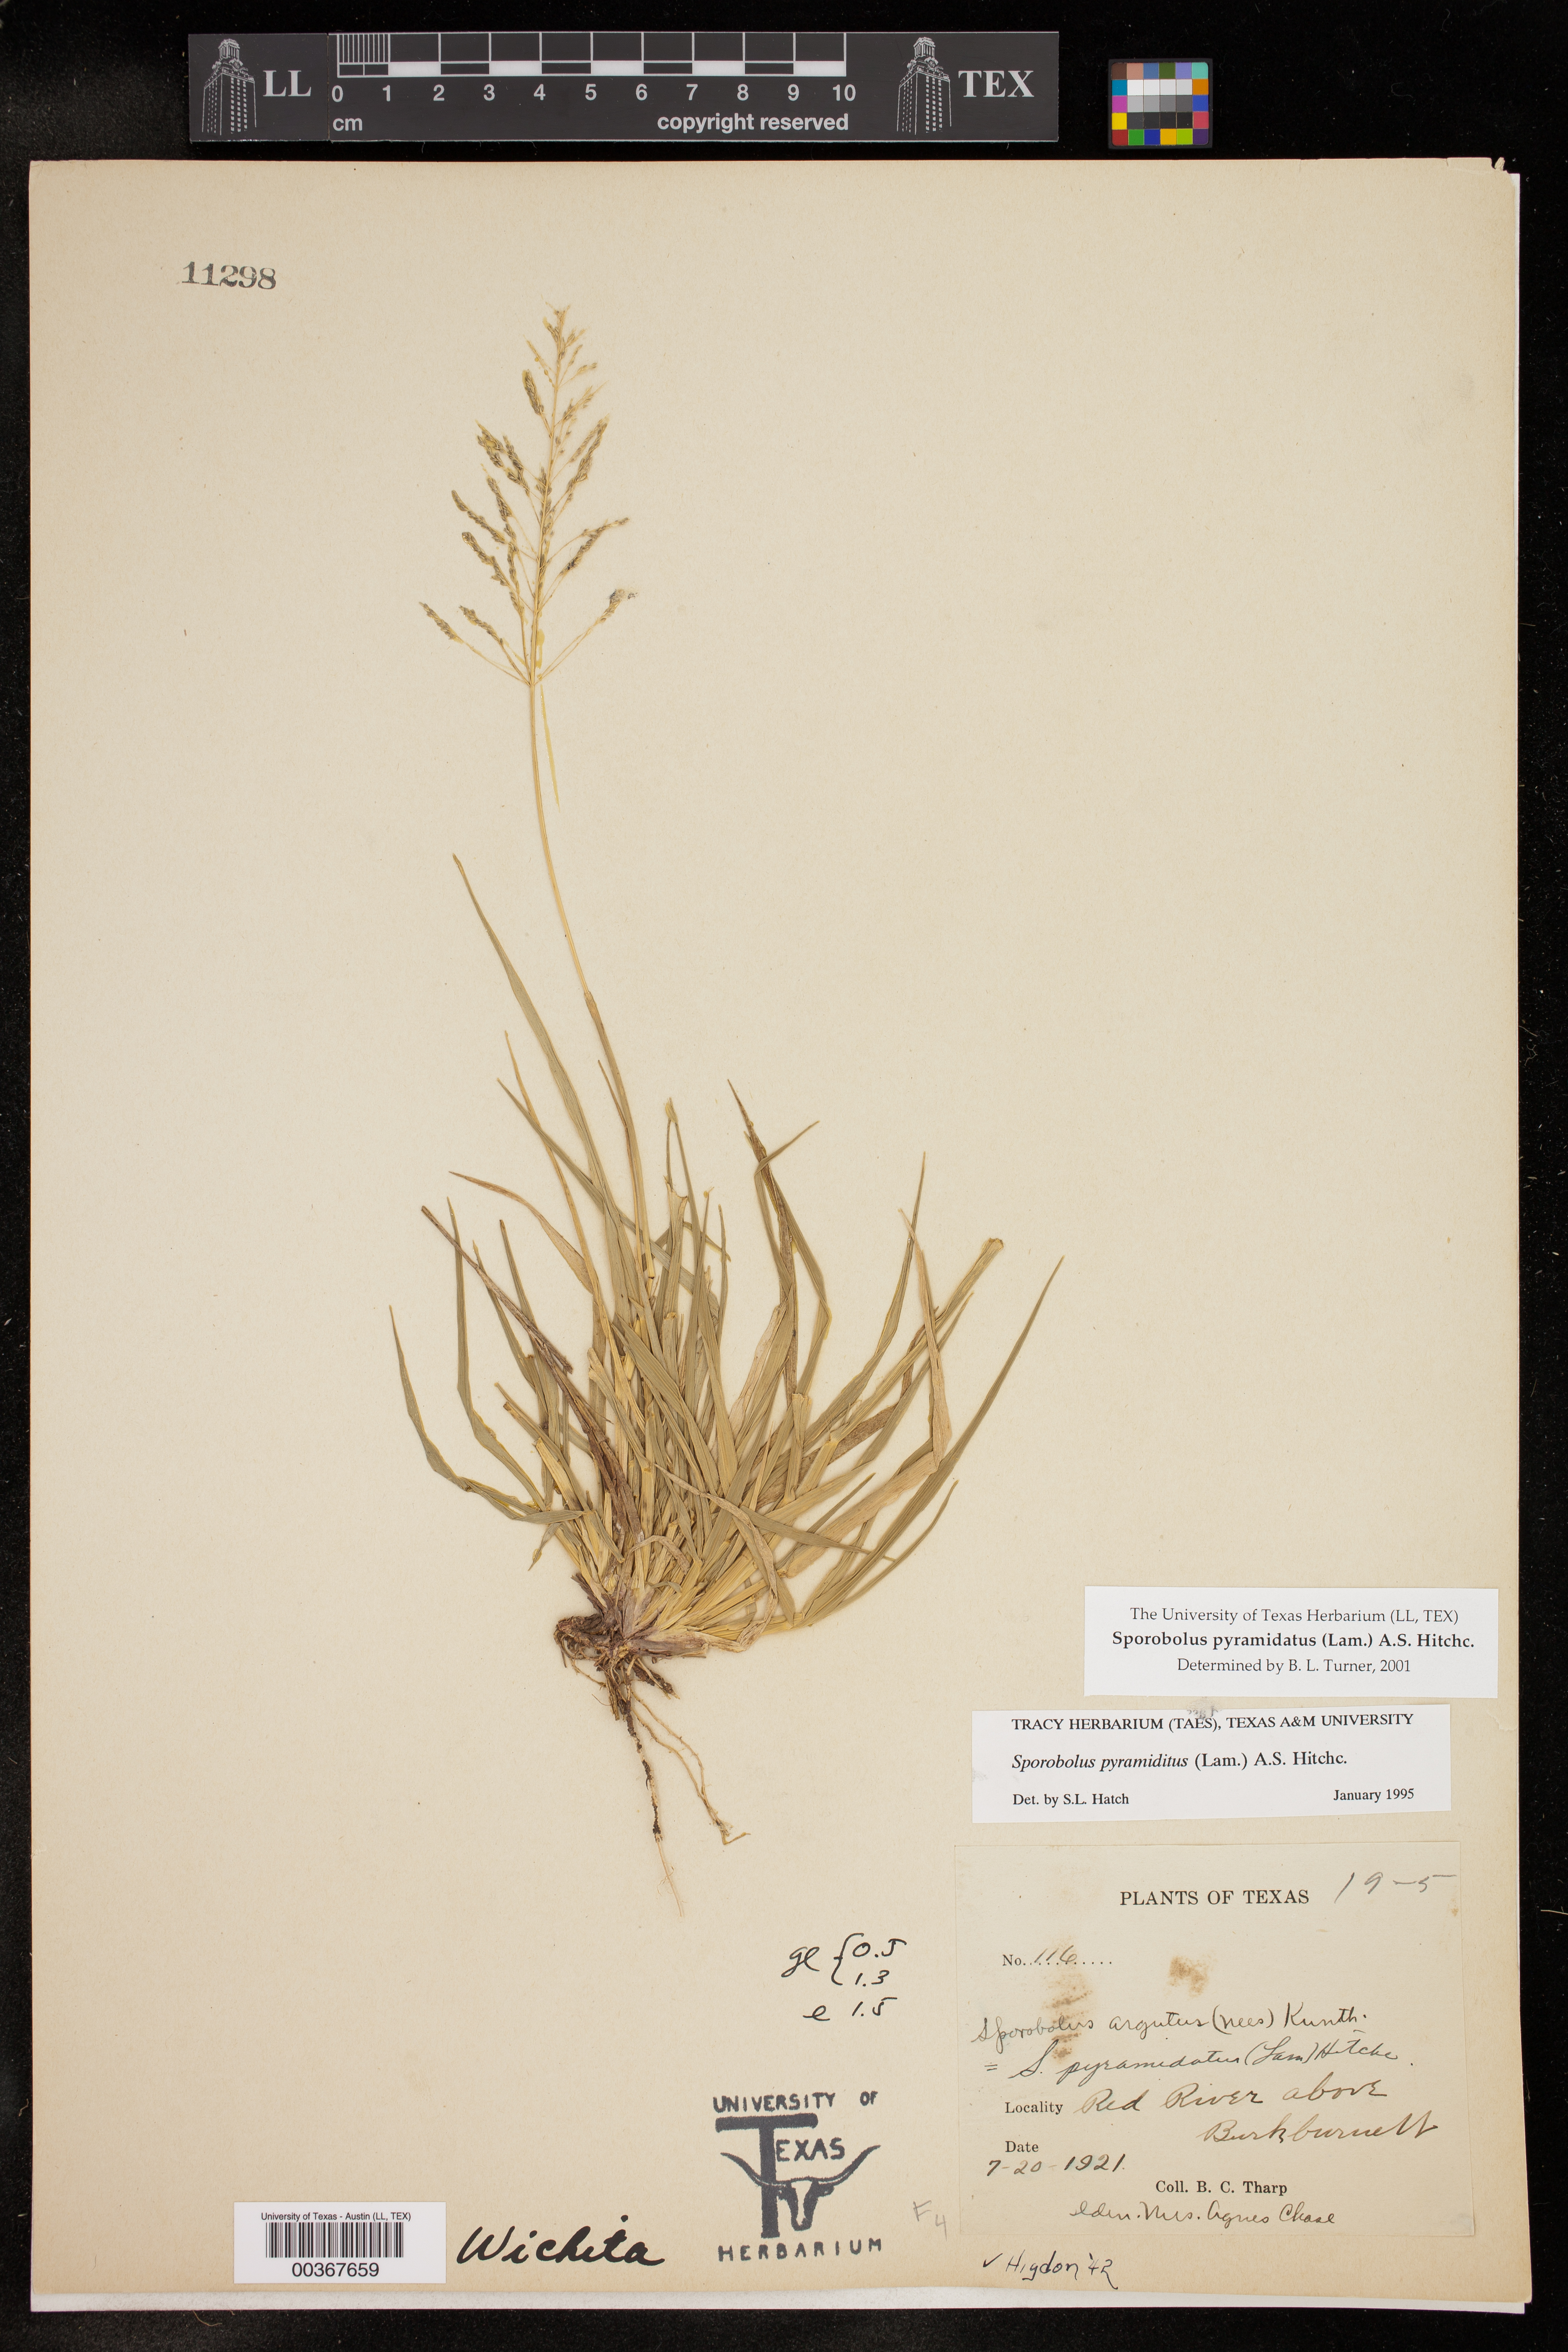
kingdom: Plantae
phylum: Tracheophyta
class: Liliopsida
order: Poales
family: Poaceae
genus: Sporobolus
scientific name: Sporobolus pyramidatus
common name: Whorled dropseed
